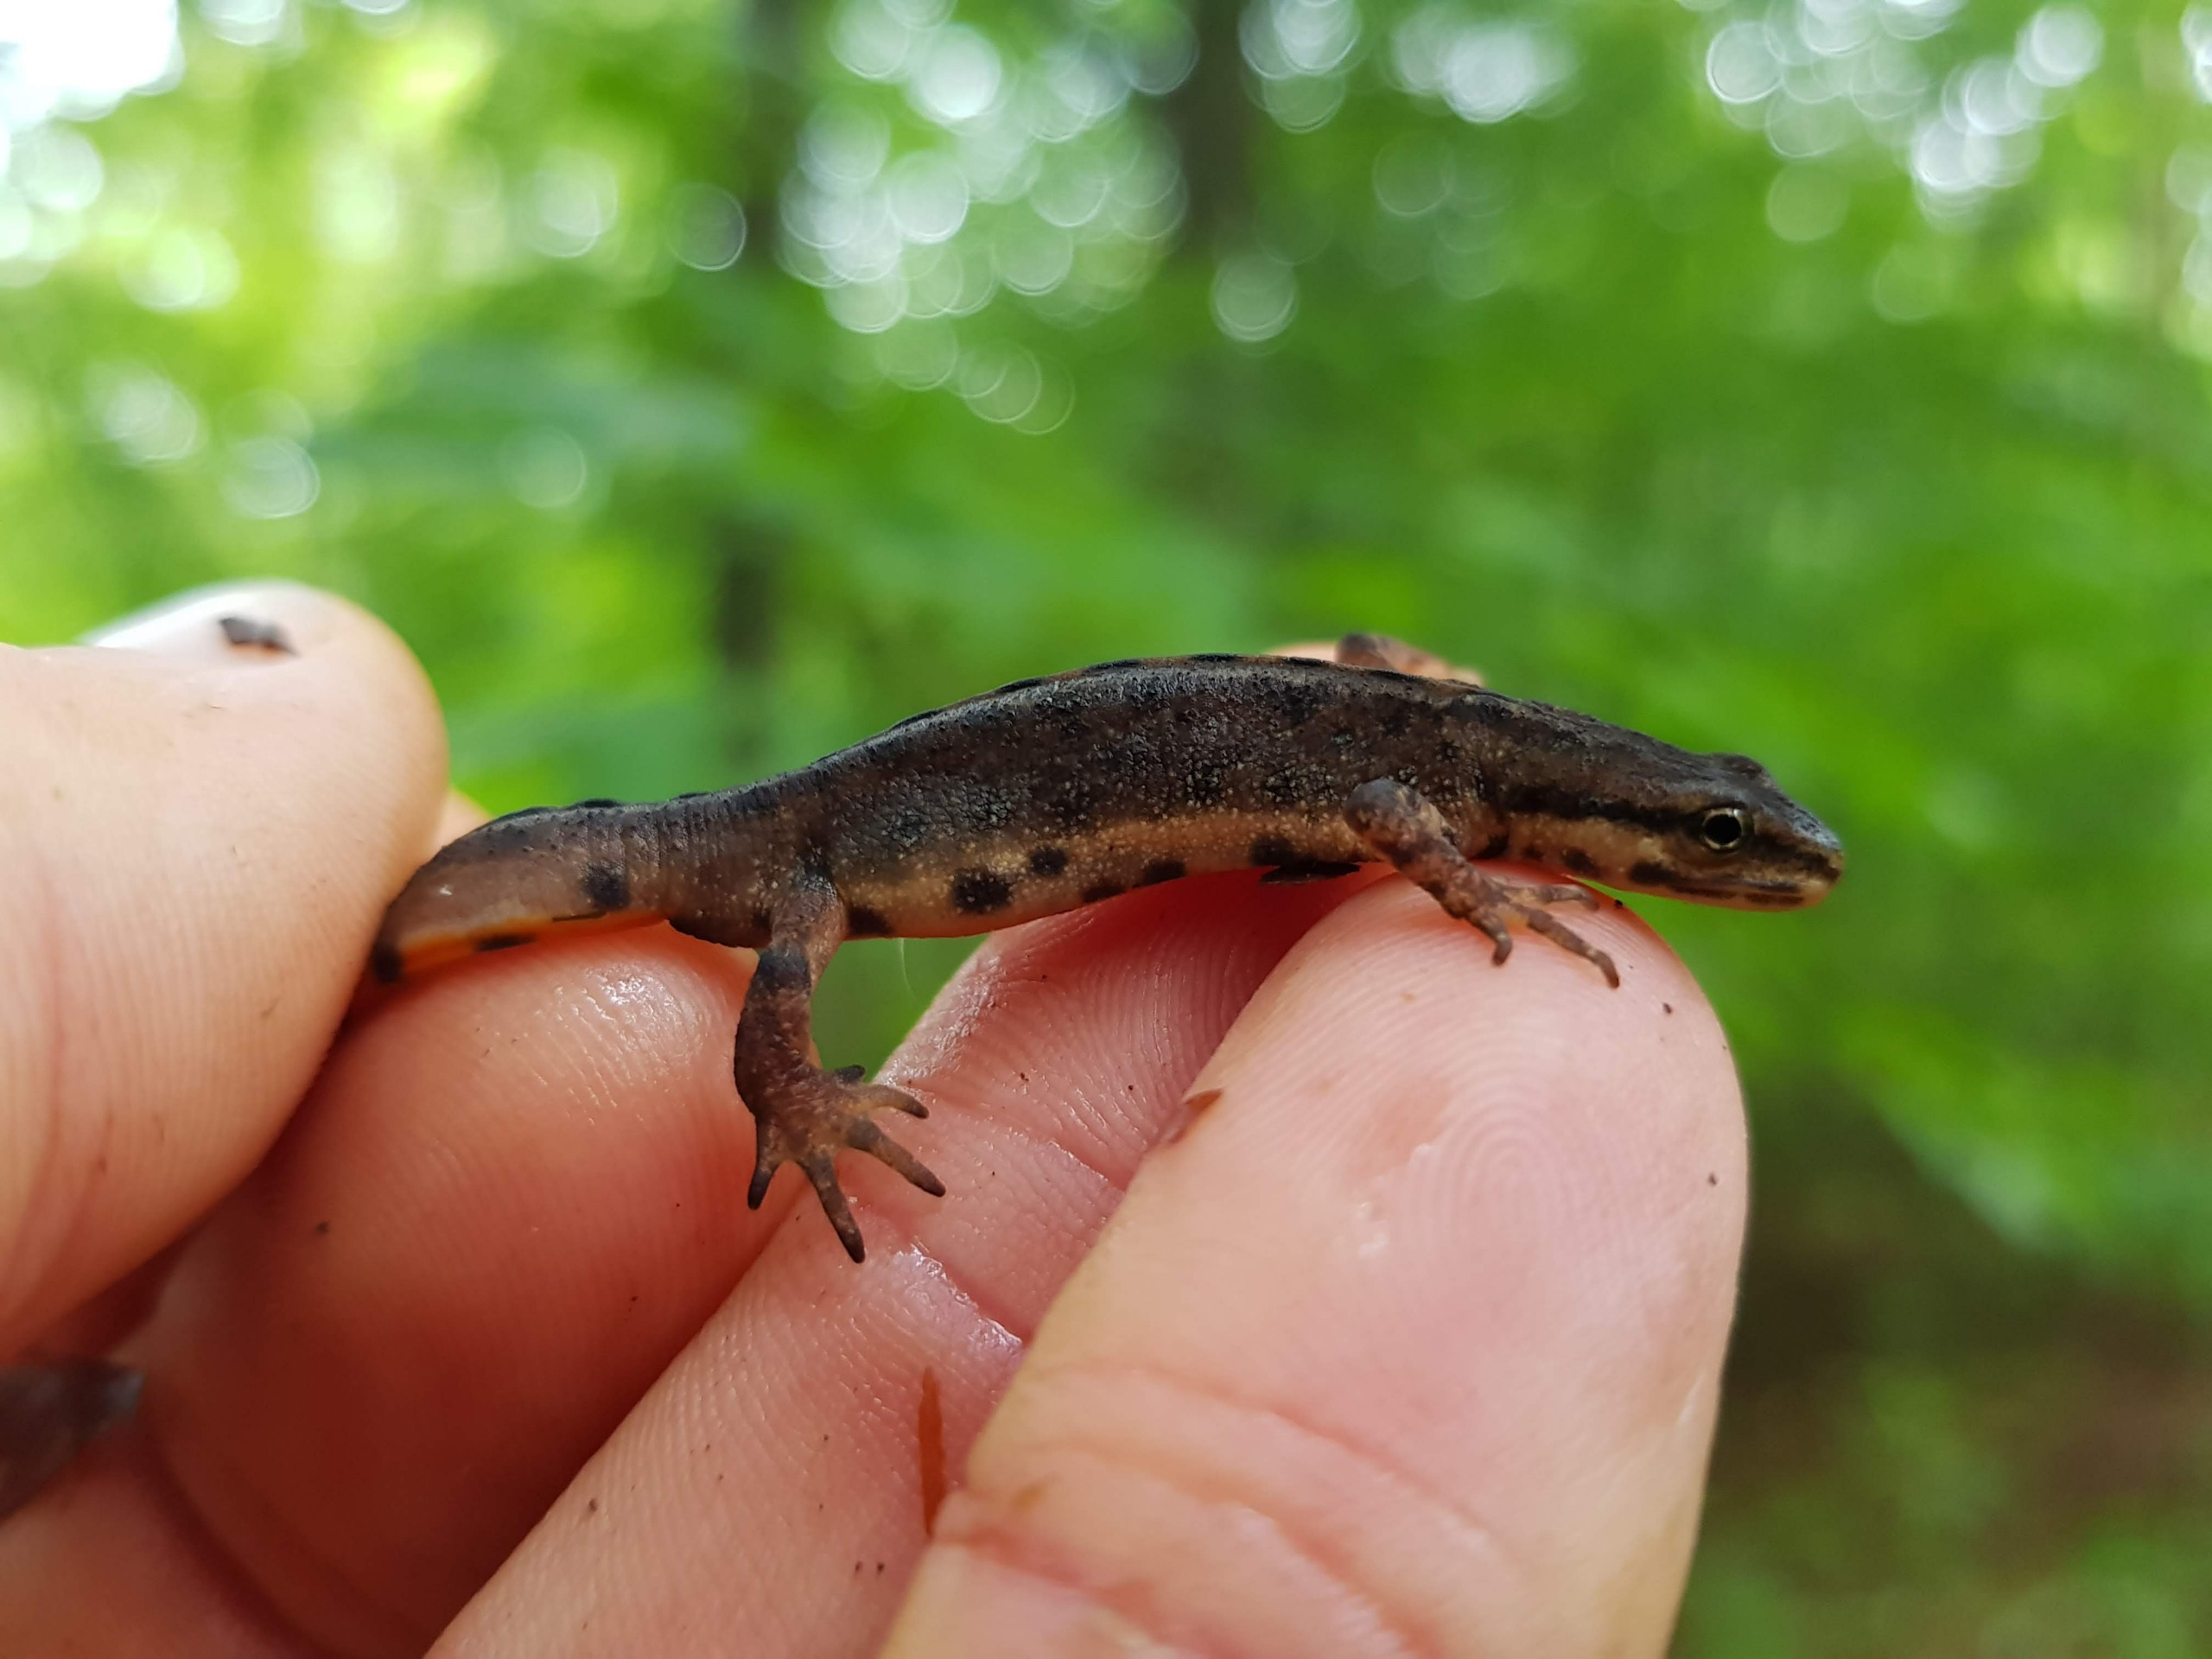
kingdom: Animalia
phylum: Chordata
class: Amphibia
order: Caudata
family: Salamandridae
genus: Lissotriton
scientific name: Lissotriton vulgaris
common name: Lille vandsalamander
